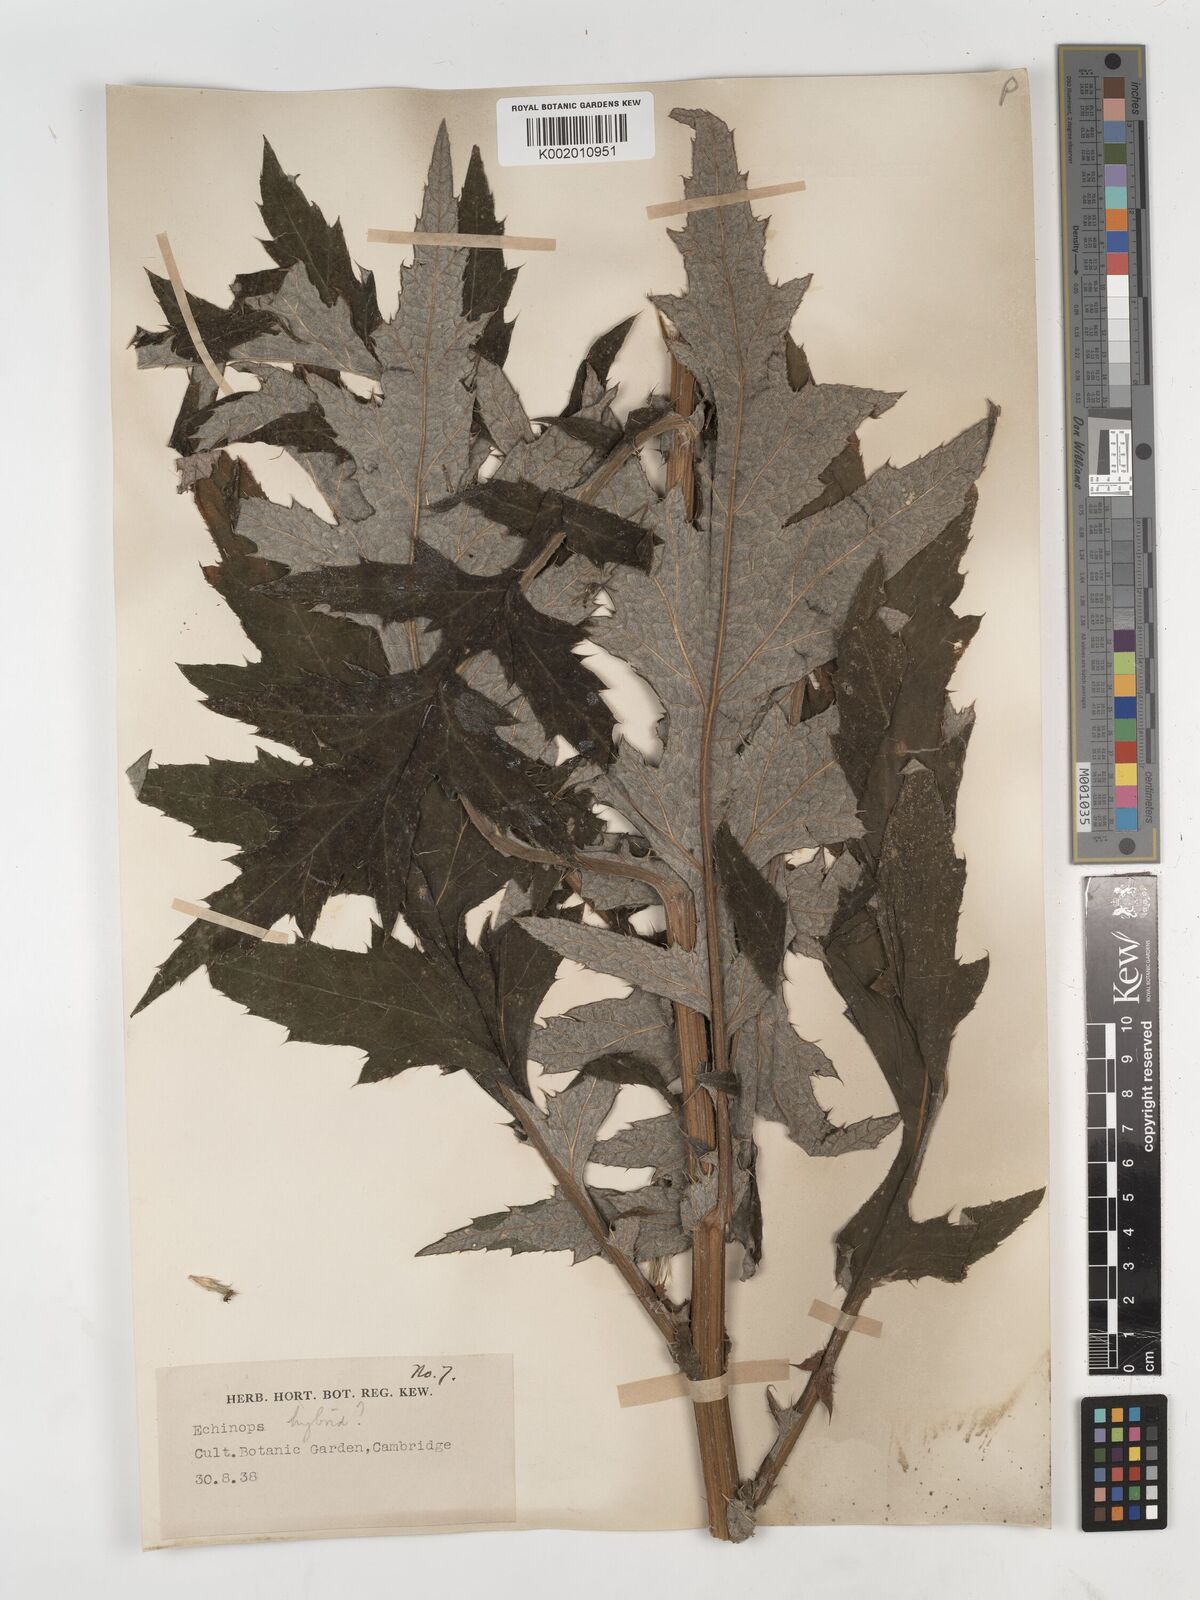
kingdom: Plantae
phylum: Tracheophyta
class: Magnoliopsida
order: Asterales
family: Asteraceae
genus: Echinops
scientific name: Echinops
